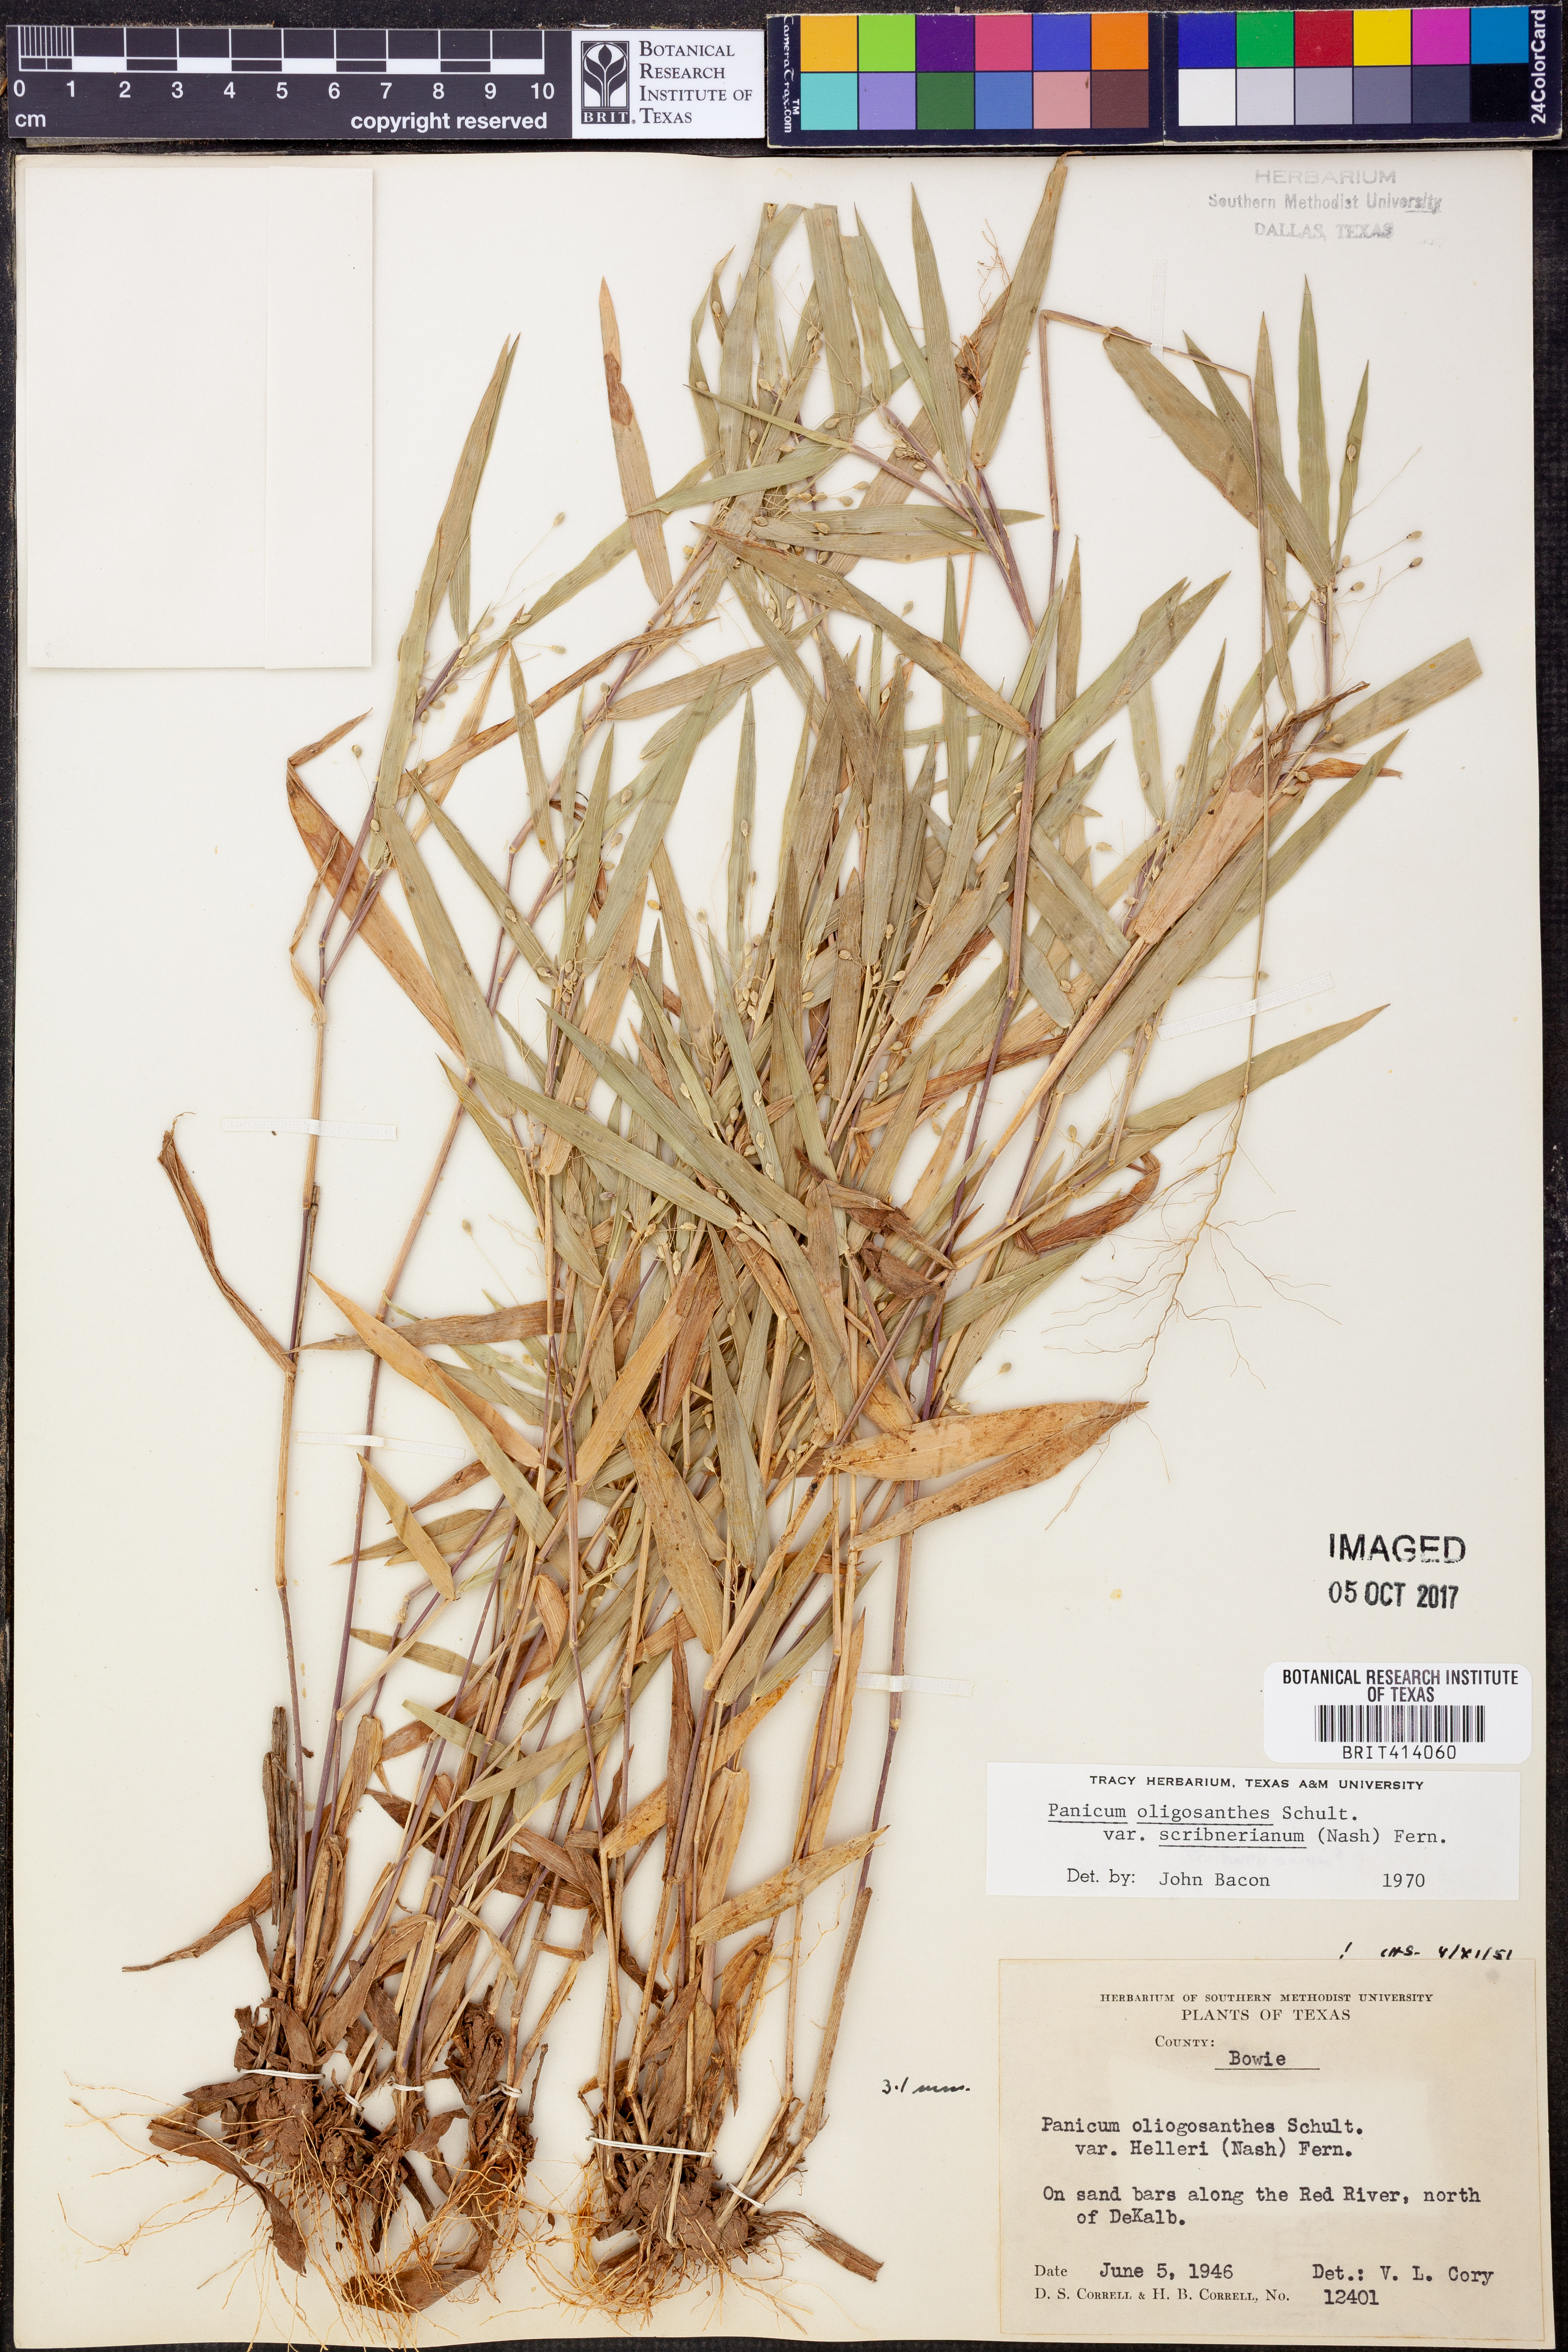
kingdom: Plantae
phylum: Tracheophyta
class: Liliopsida
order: Poales
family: Poaceae
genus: Dichanthelium
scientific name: Dichanthelium scribnerianum
